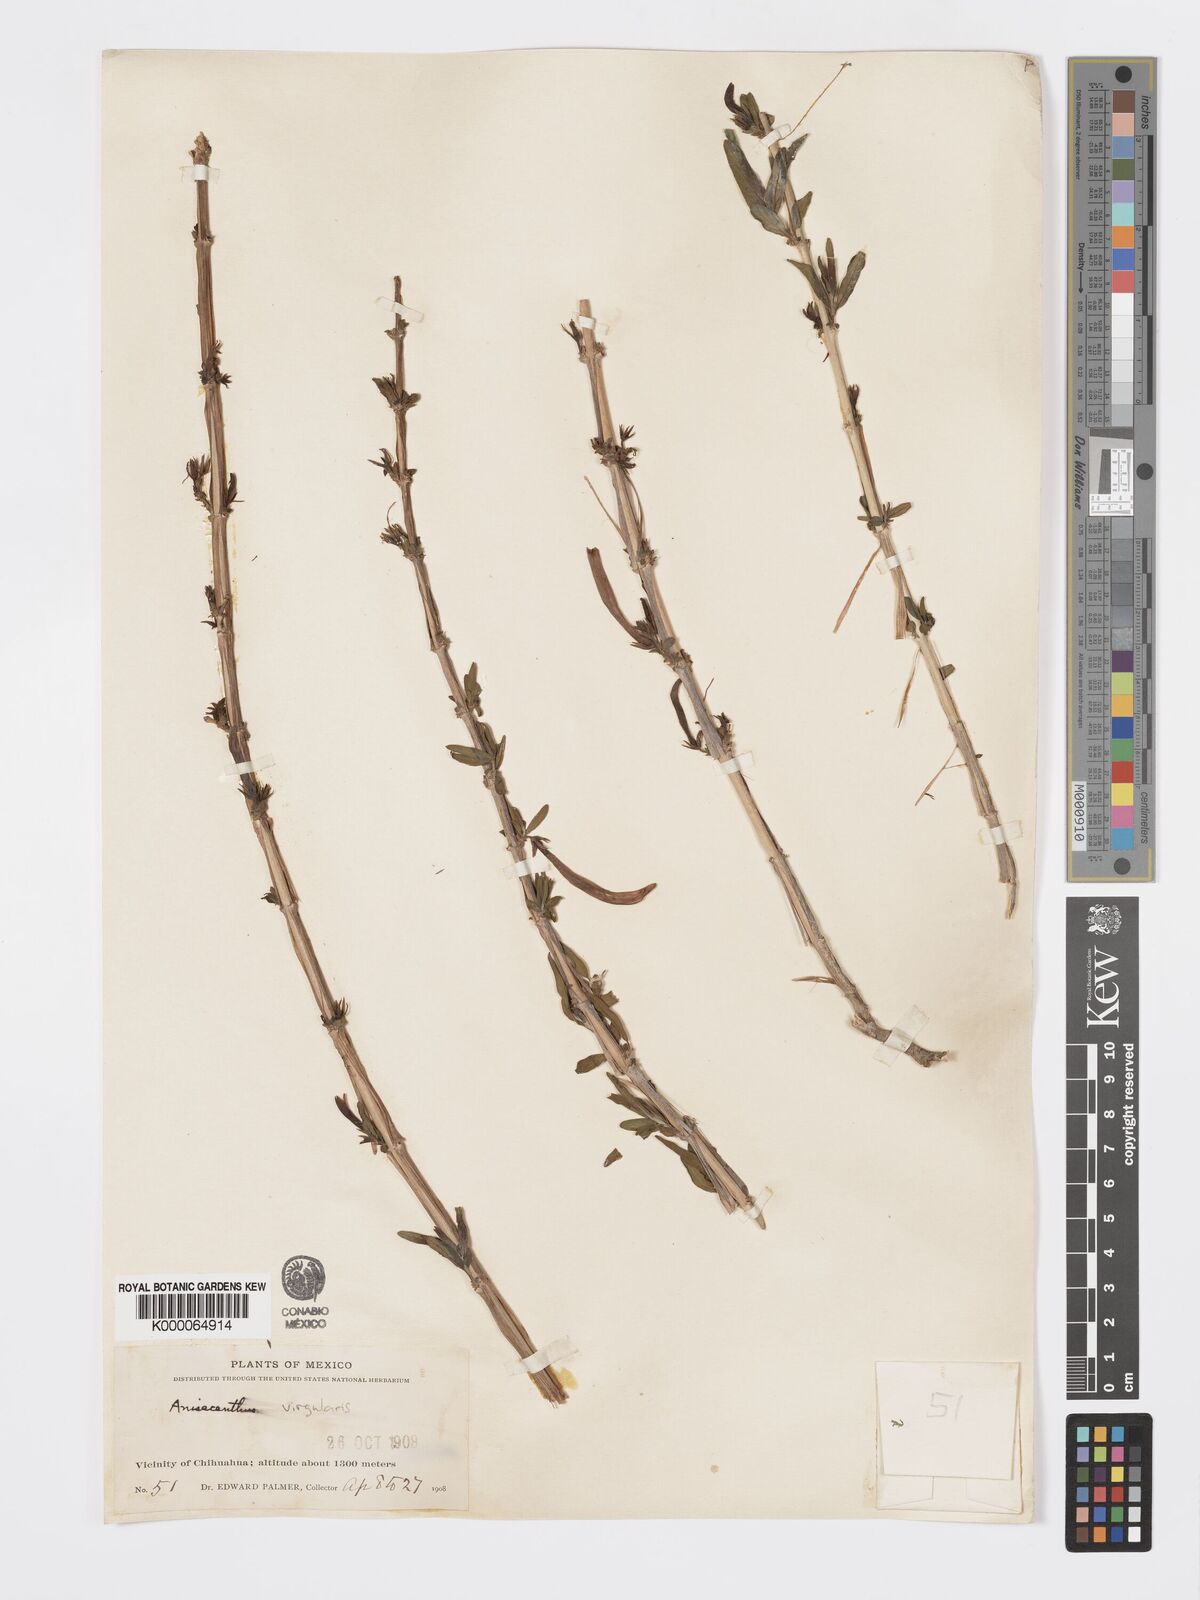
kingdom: Plantae
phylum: Tracheophyta
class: Magnoliopsida
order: Lamiales
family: Acanthaceae
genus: Anisacanthus
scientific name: Anisacanthus quadrifidus
